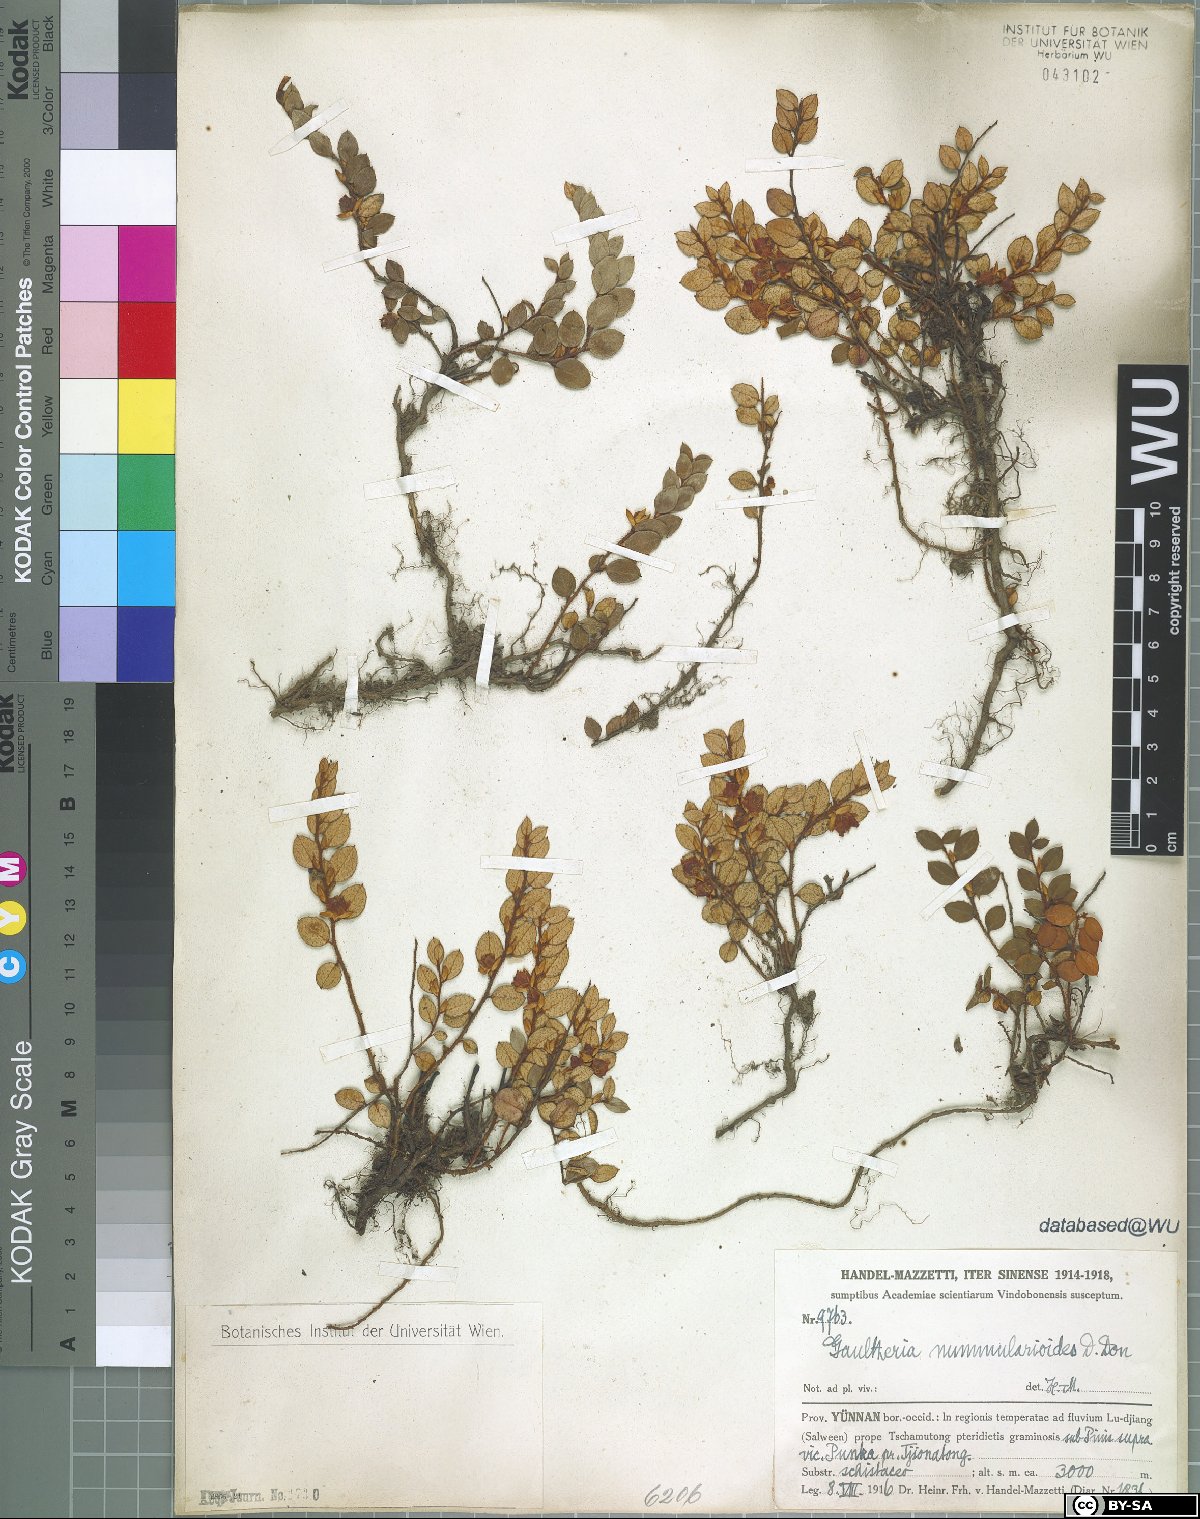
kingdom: Plantae
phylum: Tracheophyta
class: Magnoliopsida
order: Ericales
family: Ericaceae
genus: Gaultheria
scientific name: Gaultheria nummularioides
